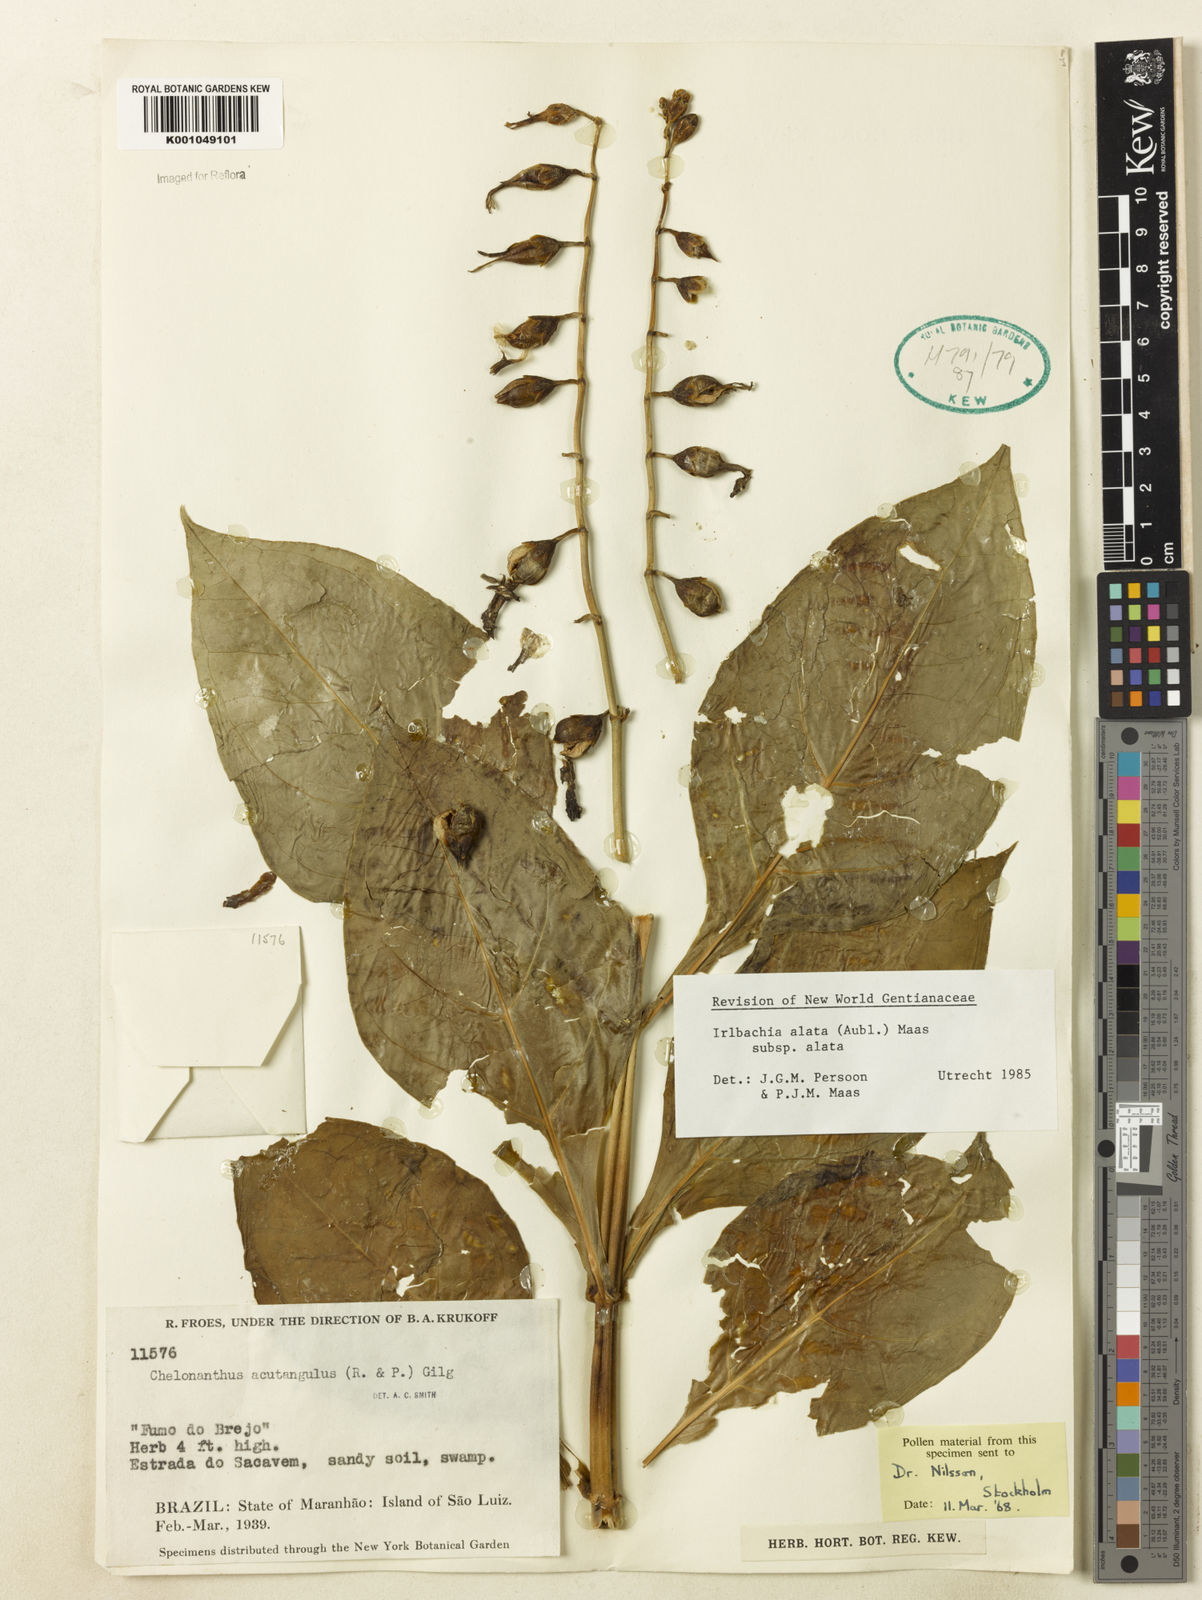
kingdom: Plantae
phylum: Tracheophyta
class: Magnoliopsida
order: Gentianales
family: Gentianaceae
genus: Chelonanthus
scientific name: Chelonanthus alatus
